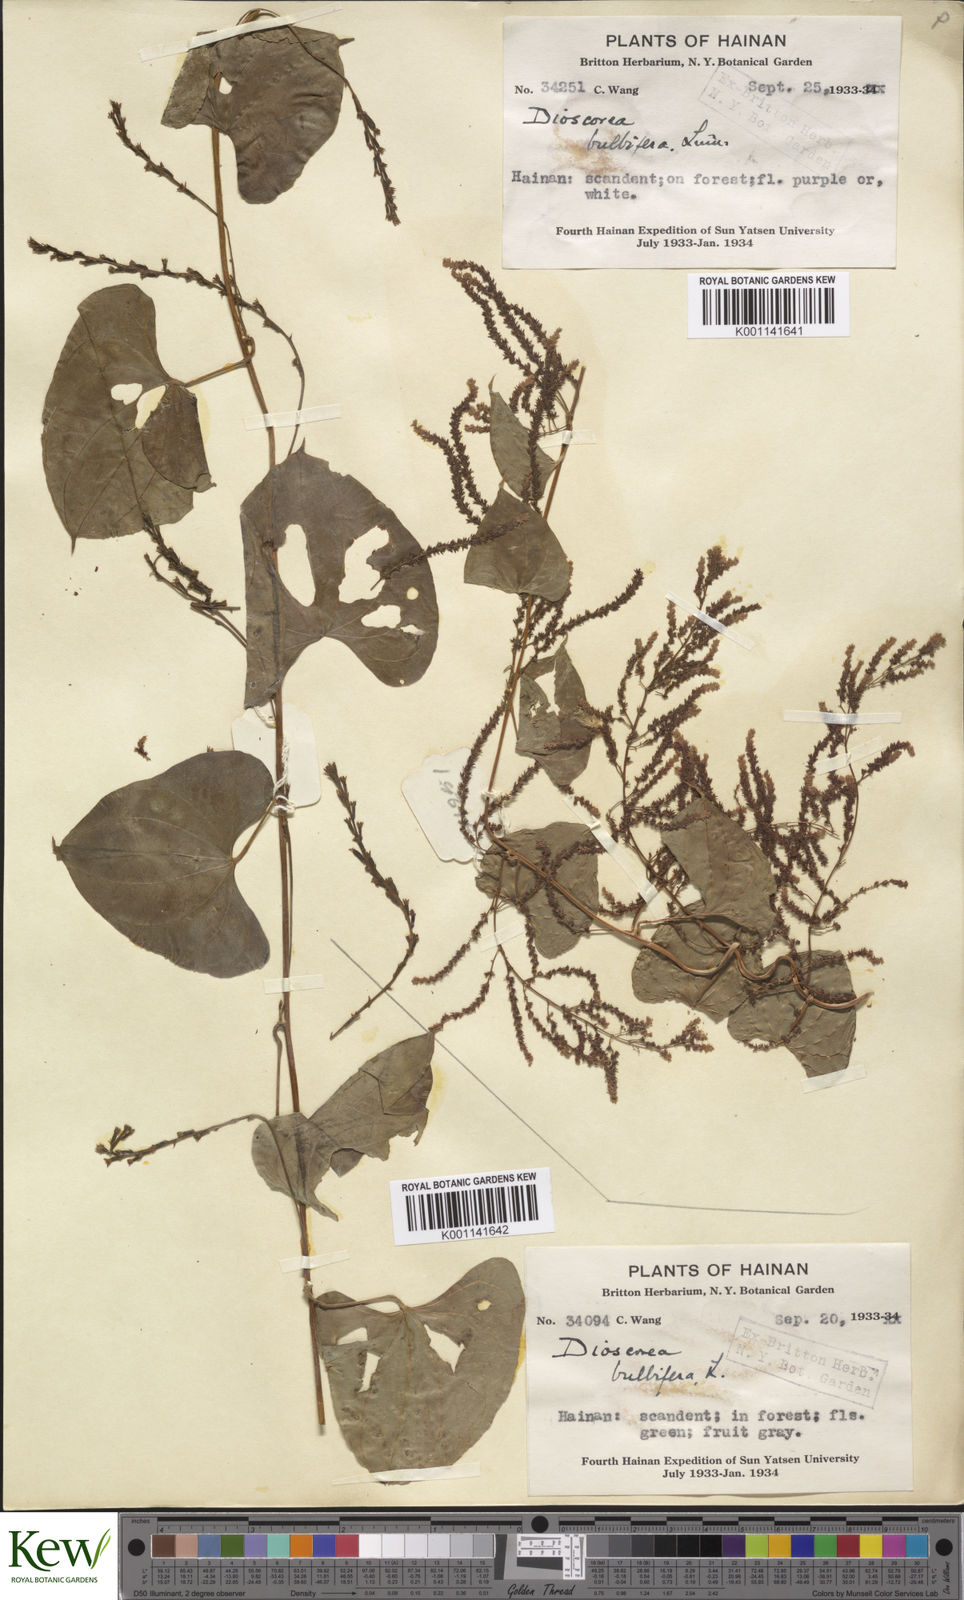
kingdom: Plantae
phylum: Tracheophyta
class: Liliopsida
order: Dioscoreales
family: Dioscoreaceae
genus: Dioscorea
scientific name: Dioscorea bulbifera
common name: Air yam
